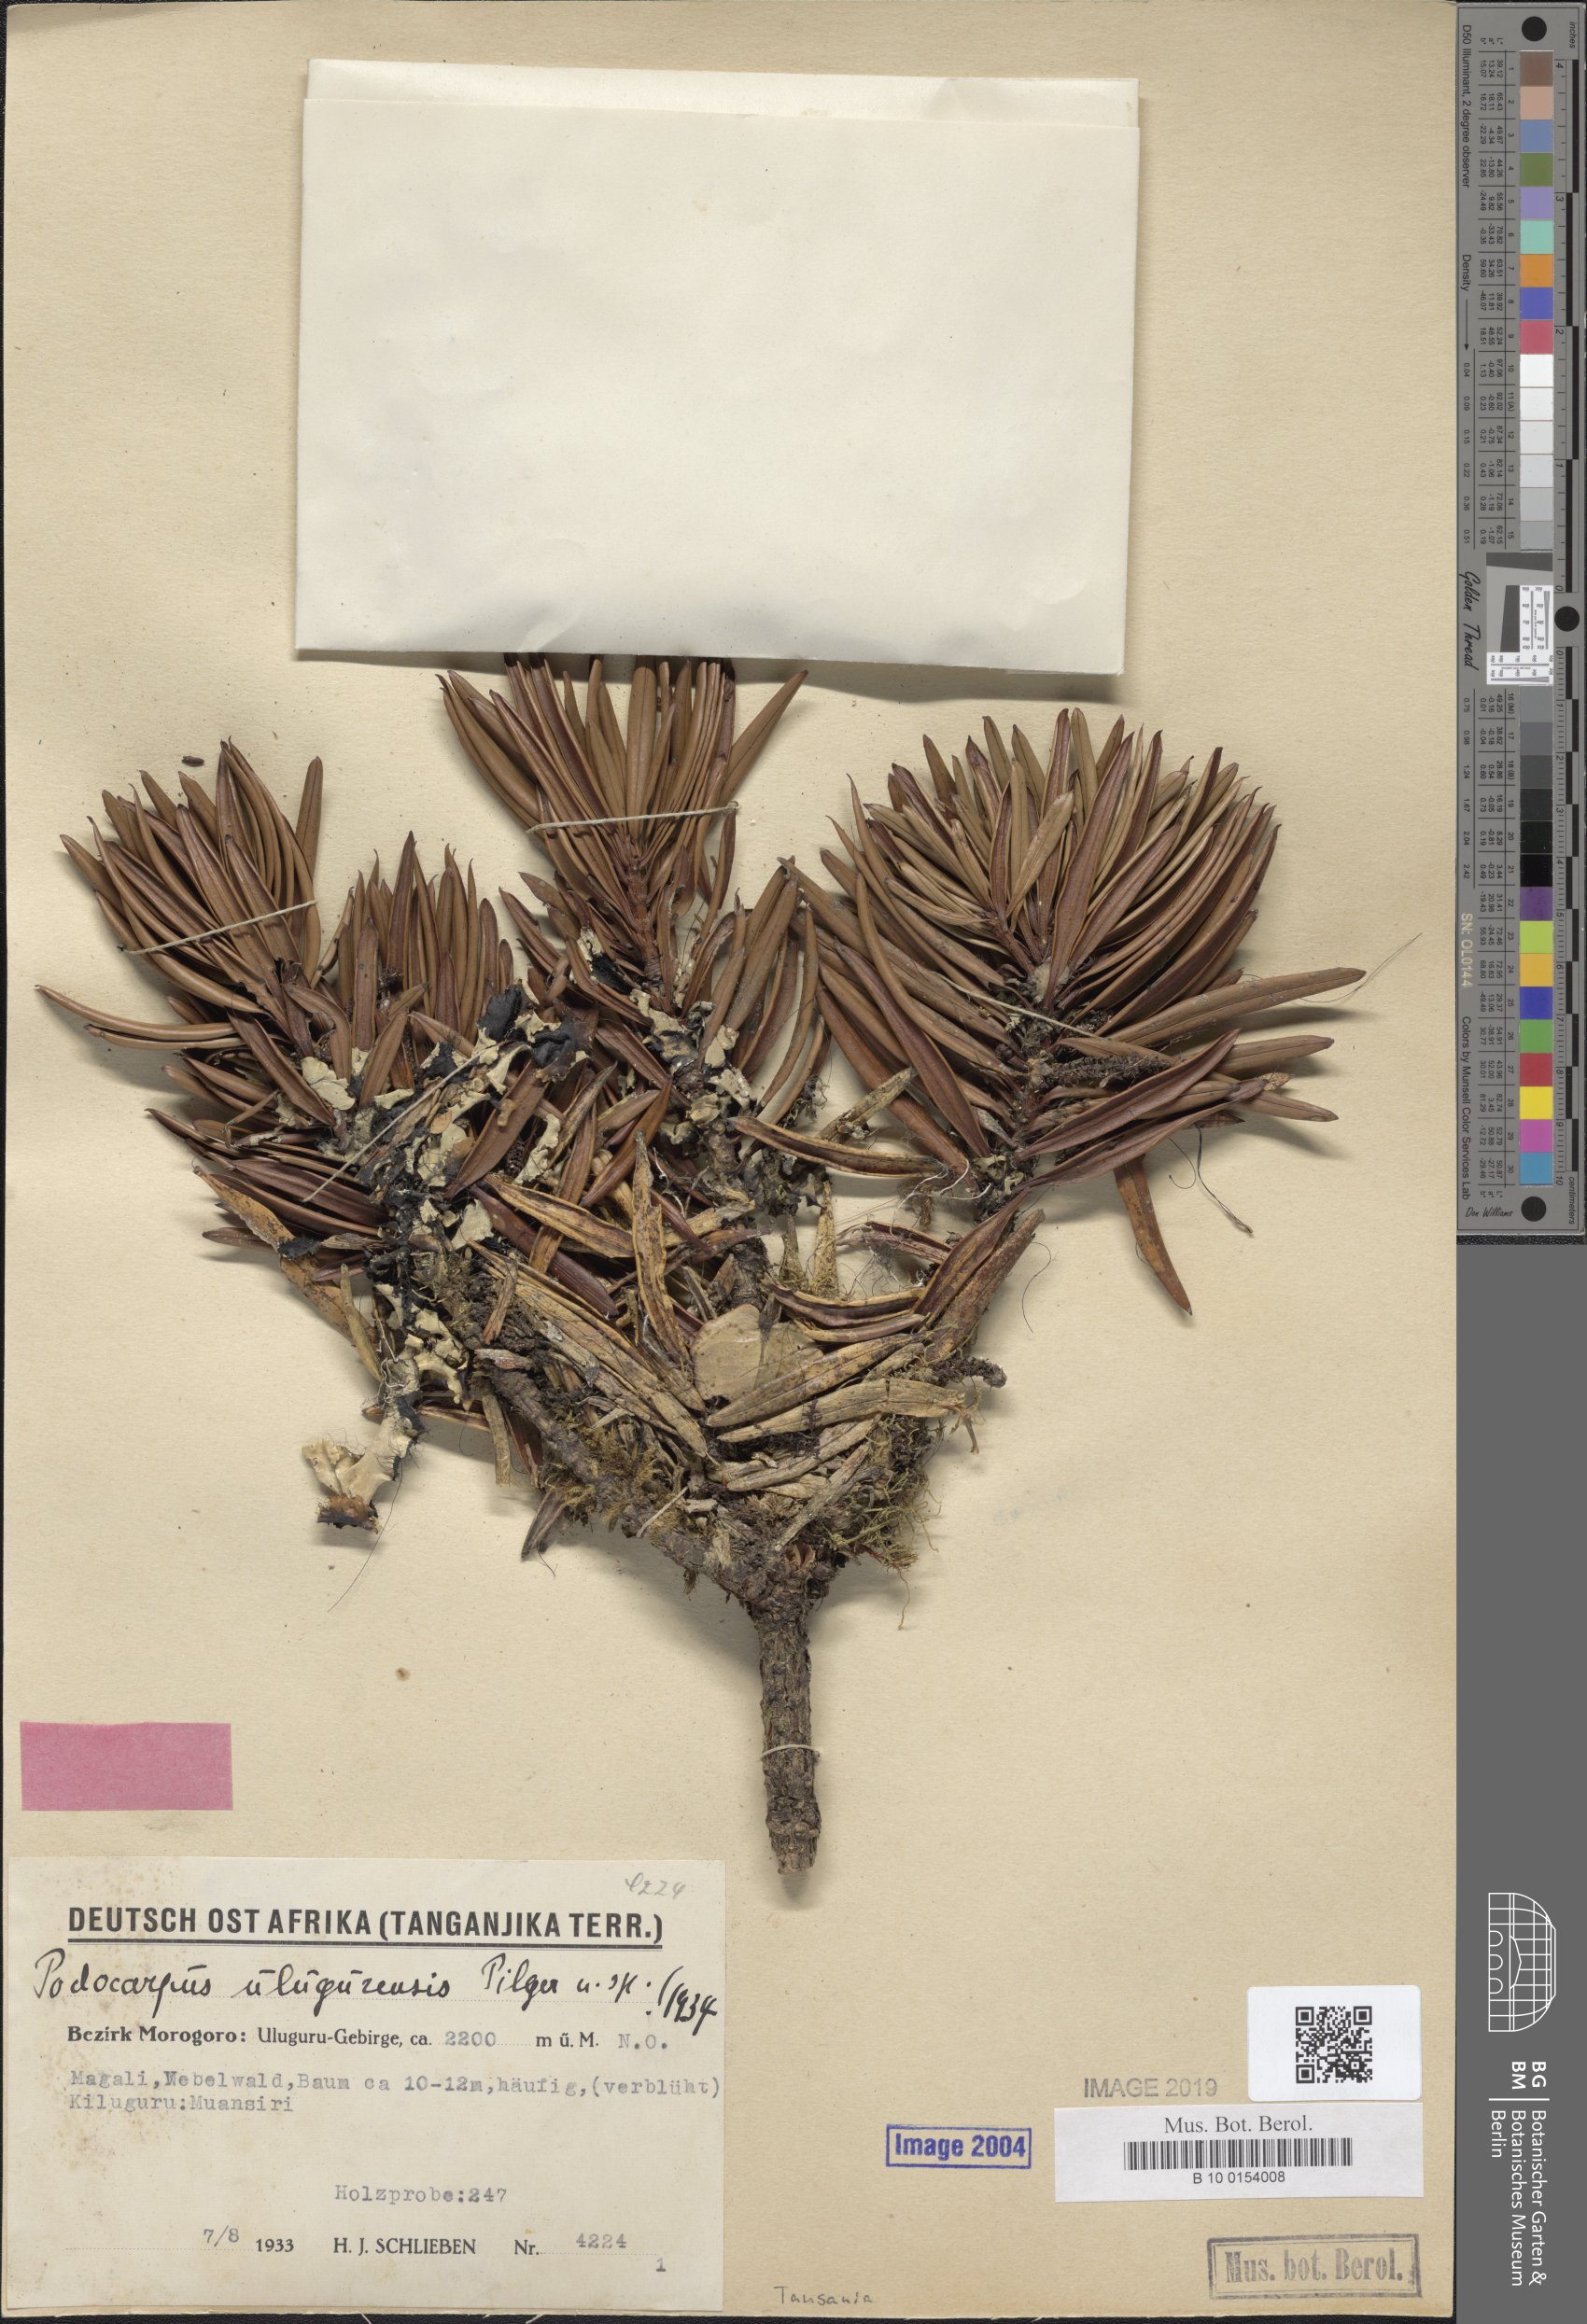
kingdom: Plantae
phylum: Tracheophyta
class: Pinopsida
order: Pinales
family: Podocarpaceae
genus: Podocarpus
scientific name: Podocarpus milanjianus
